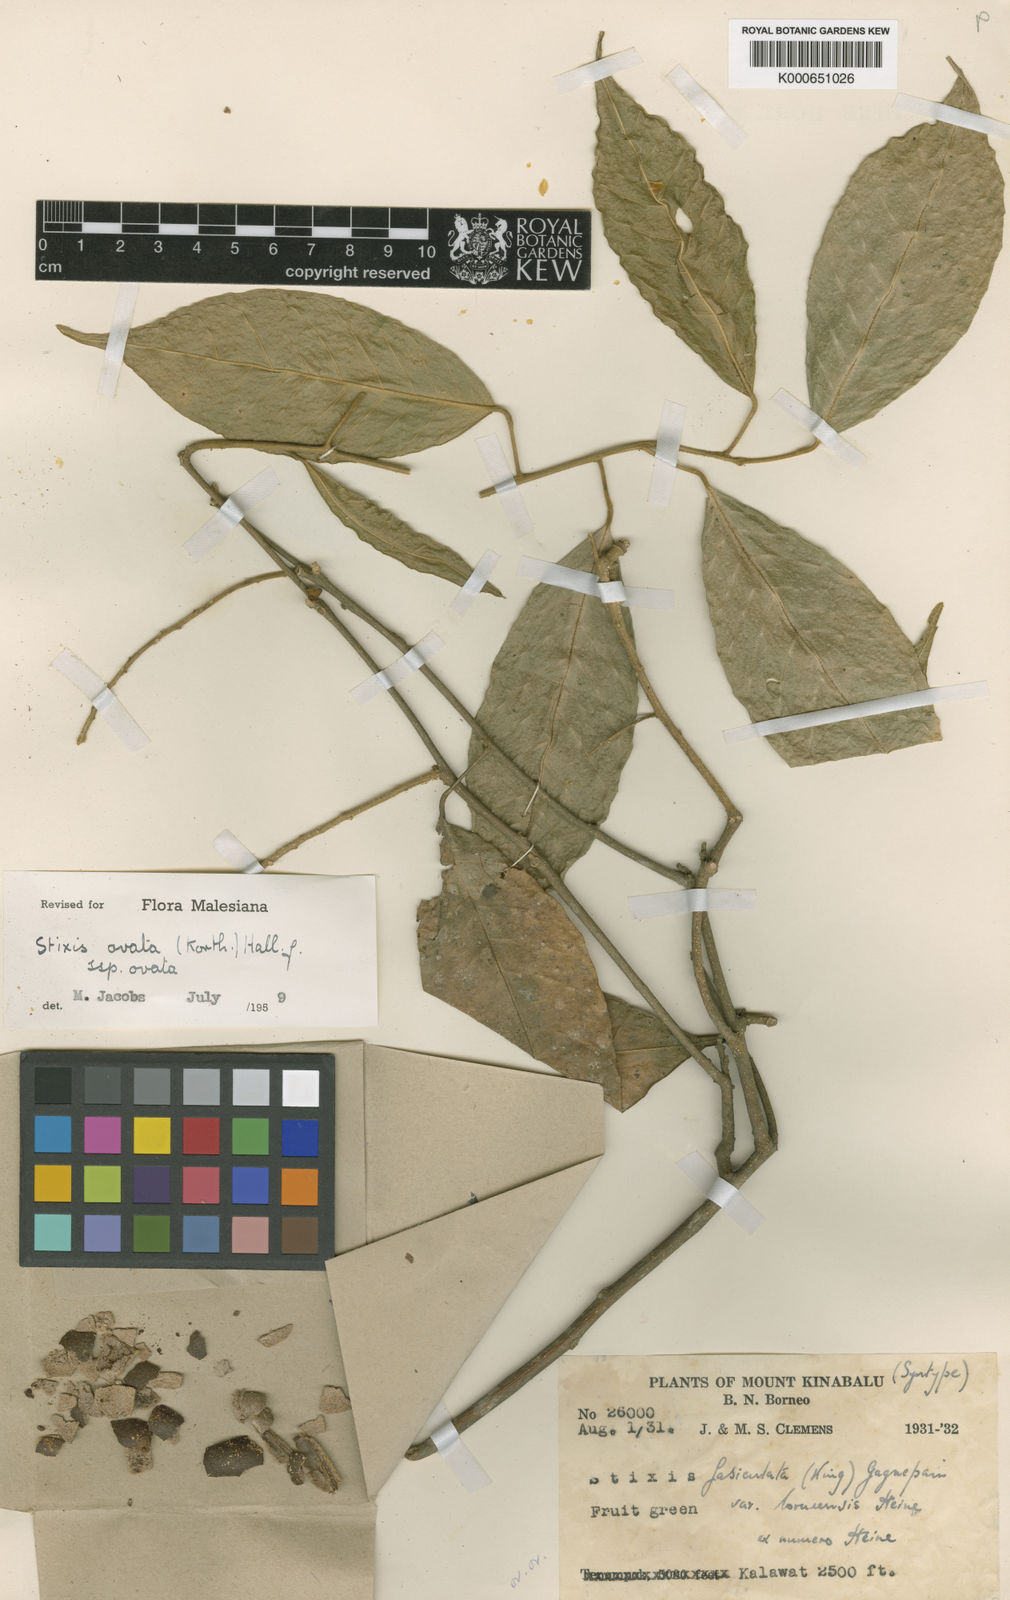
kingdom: Plantae
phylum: Tracheophyta
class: Magnoliopsida
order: Brassicales
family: Stixaceae
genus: Stixis
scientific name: Stixis ovata
